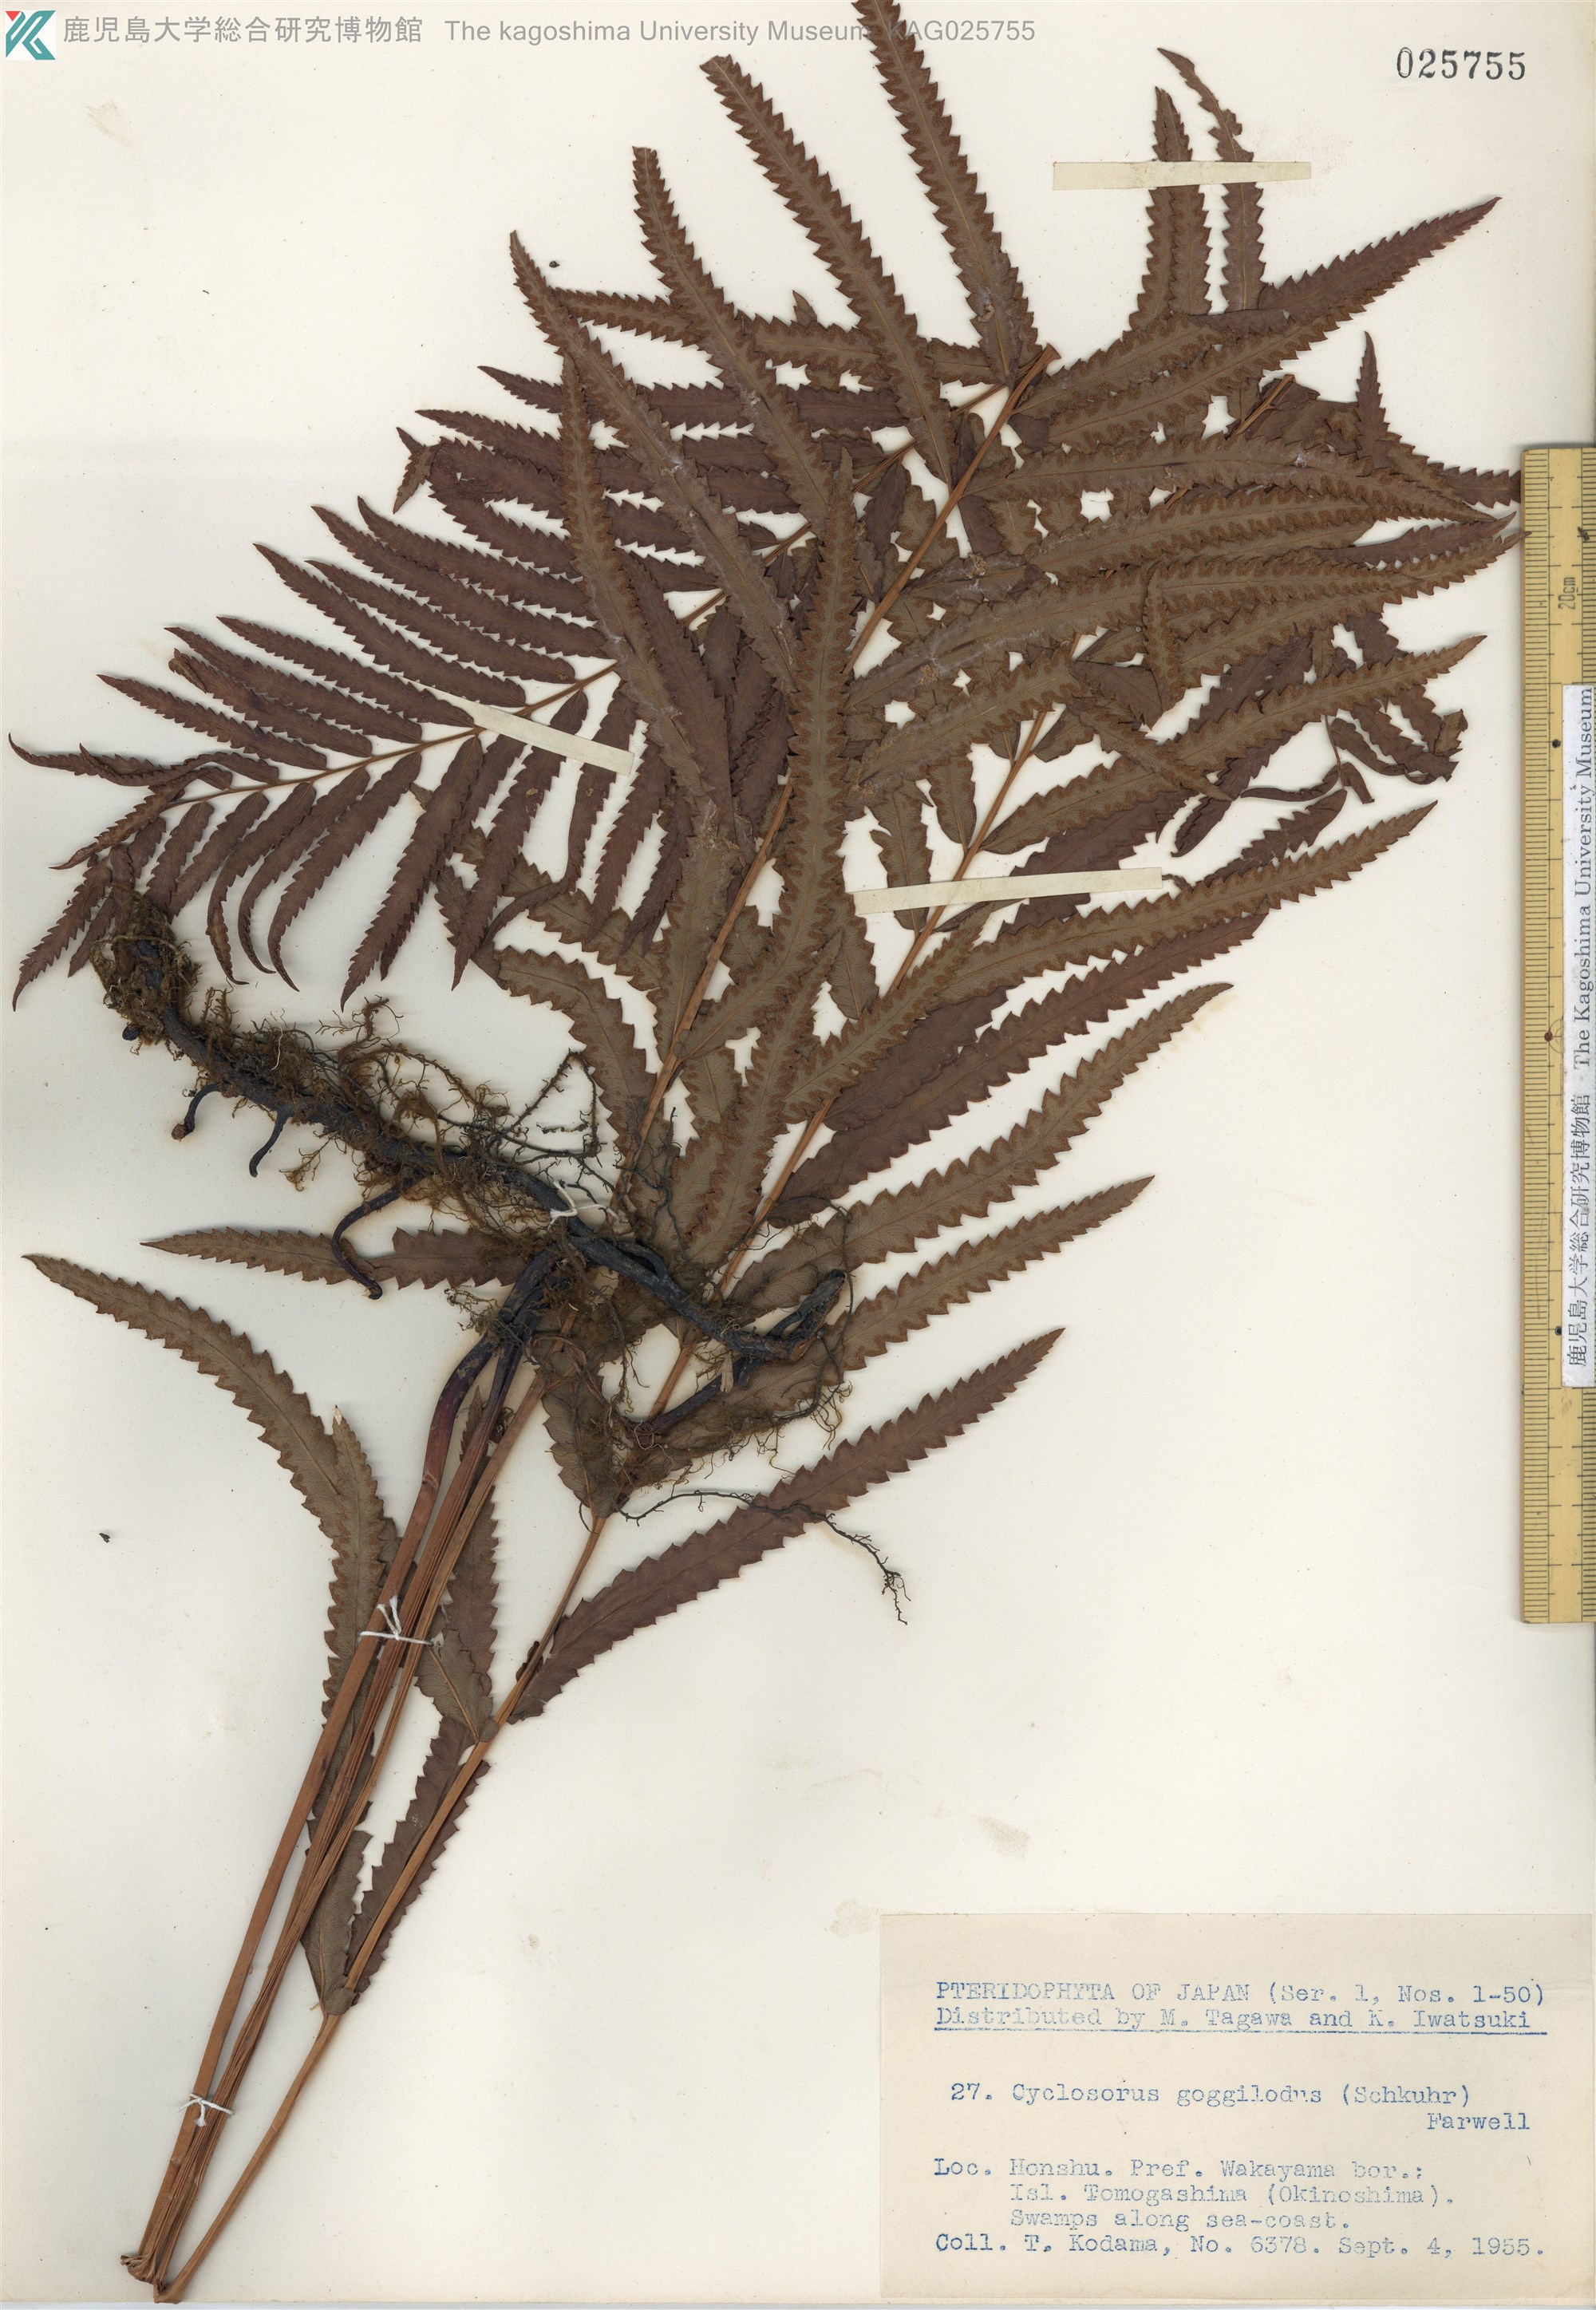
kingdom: Plantae
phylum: Tracheophyta
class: Polypodiopsida
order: Polypodiales
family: Thelypteridaceae
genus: Cyclosorus
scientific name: Cyclosorus interruptus
